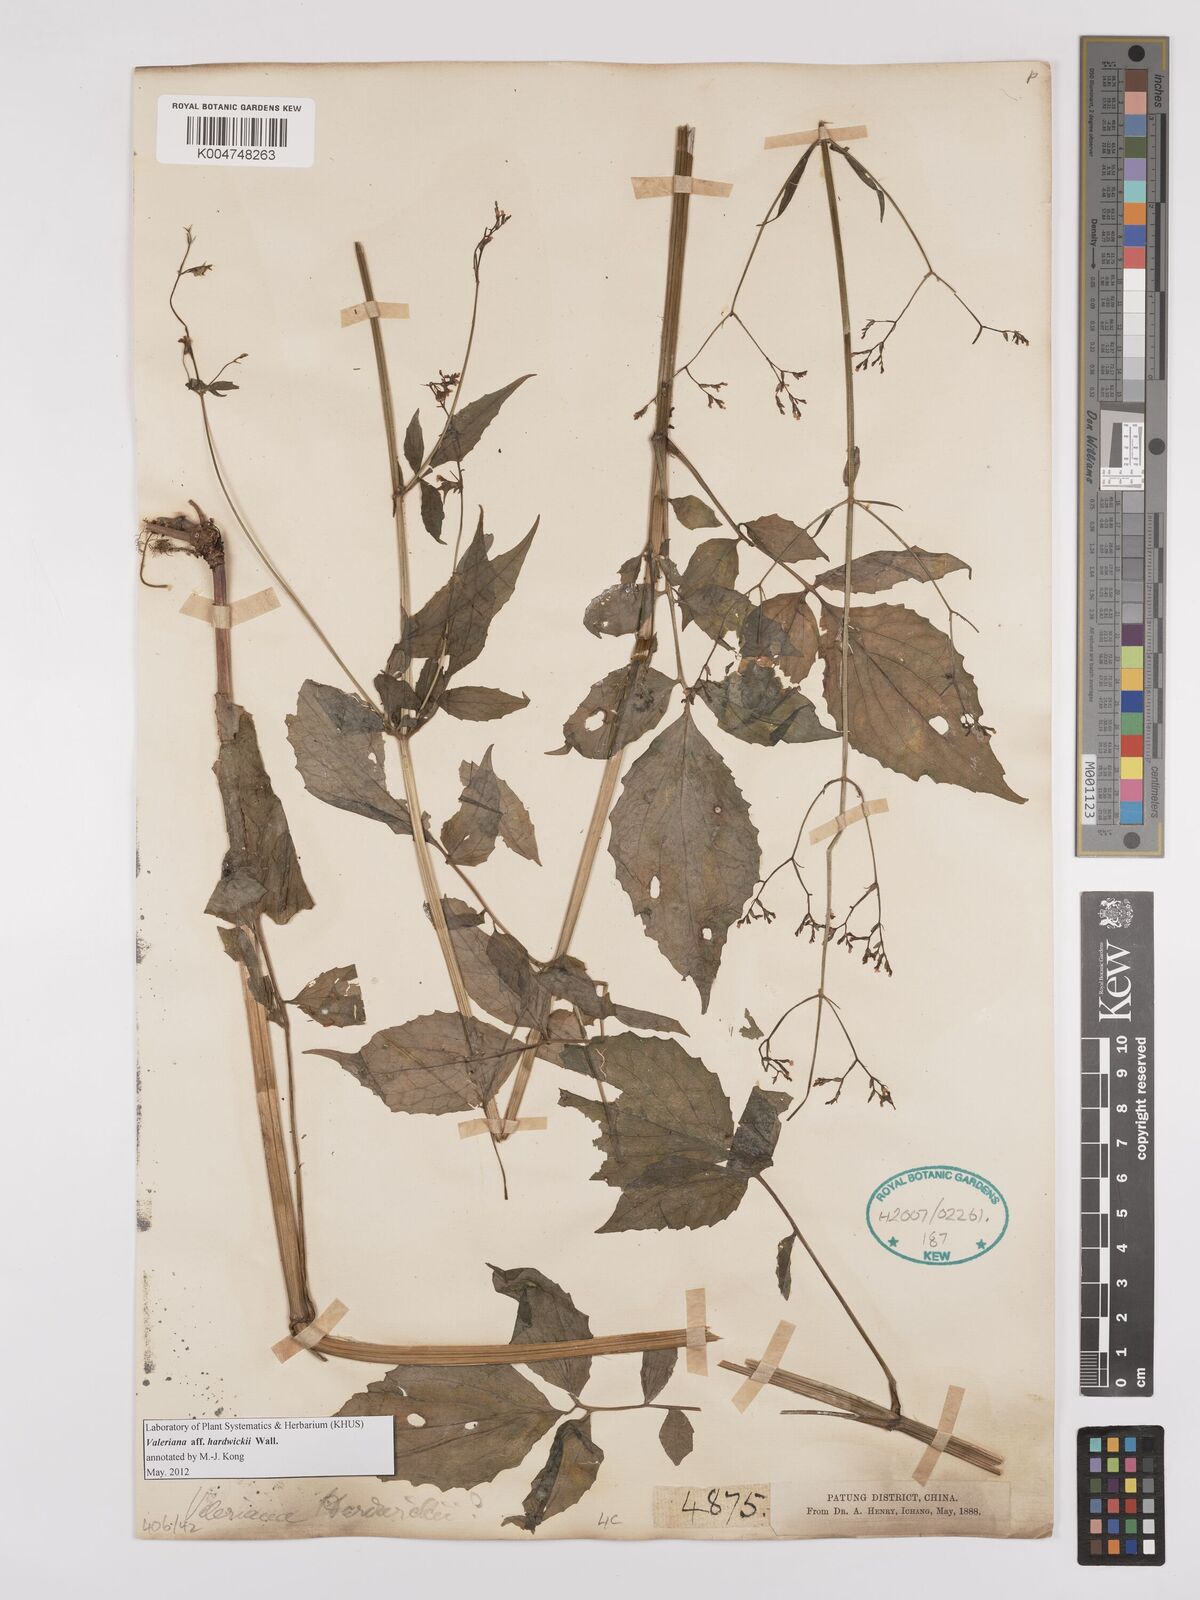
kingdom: Plantae
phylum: Tracheophyta
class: Magnoliopsida
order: Dipsacales
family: Caprifoliaceae
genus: Valeriana
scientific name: Valeriana hardwickei
